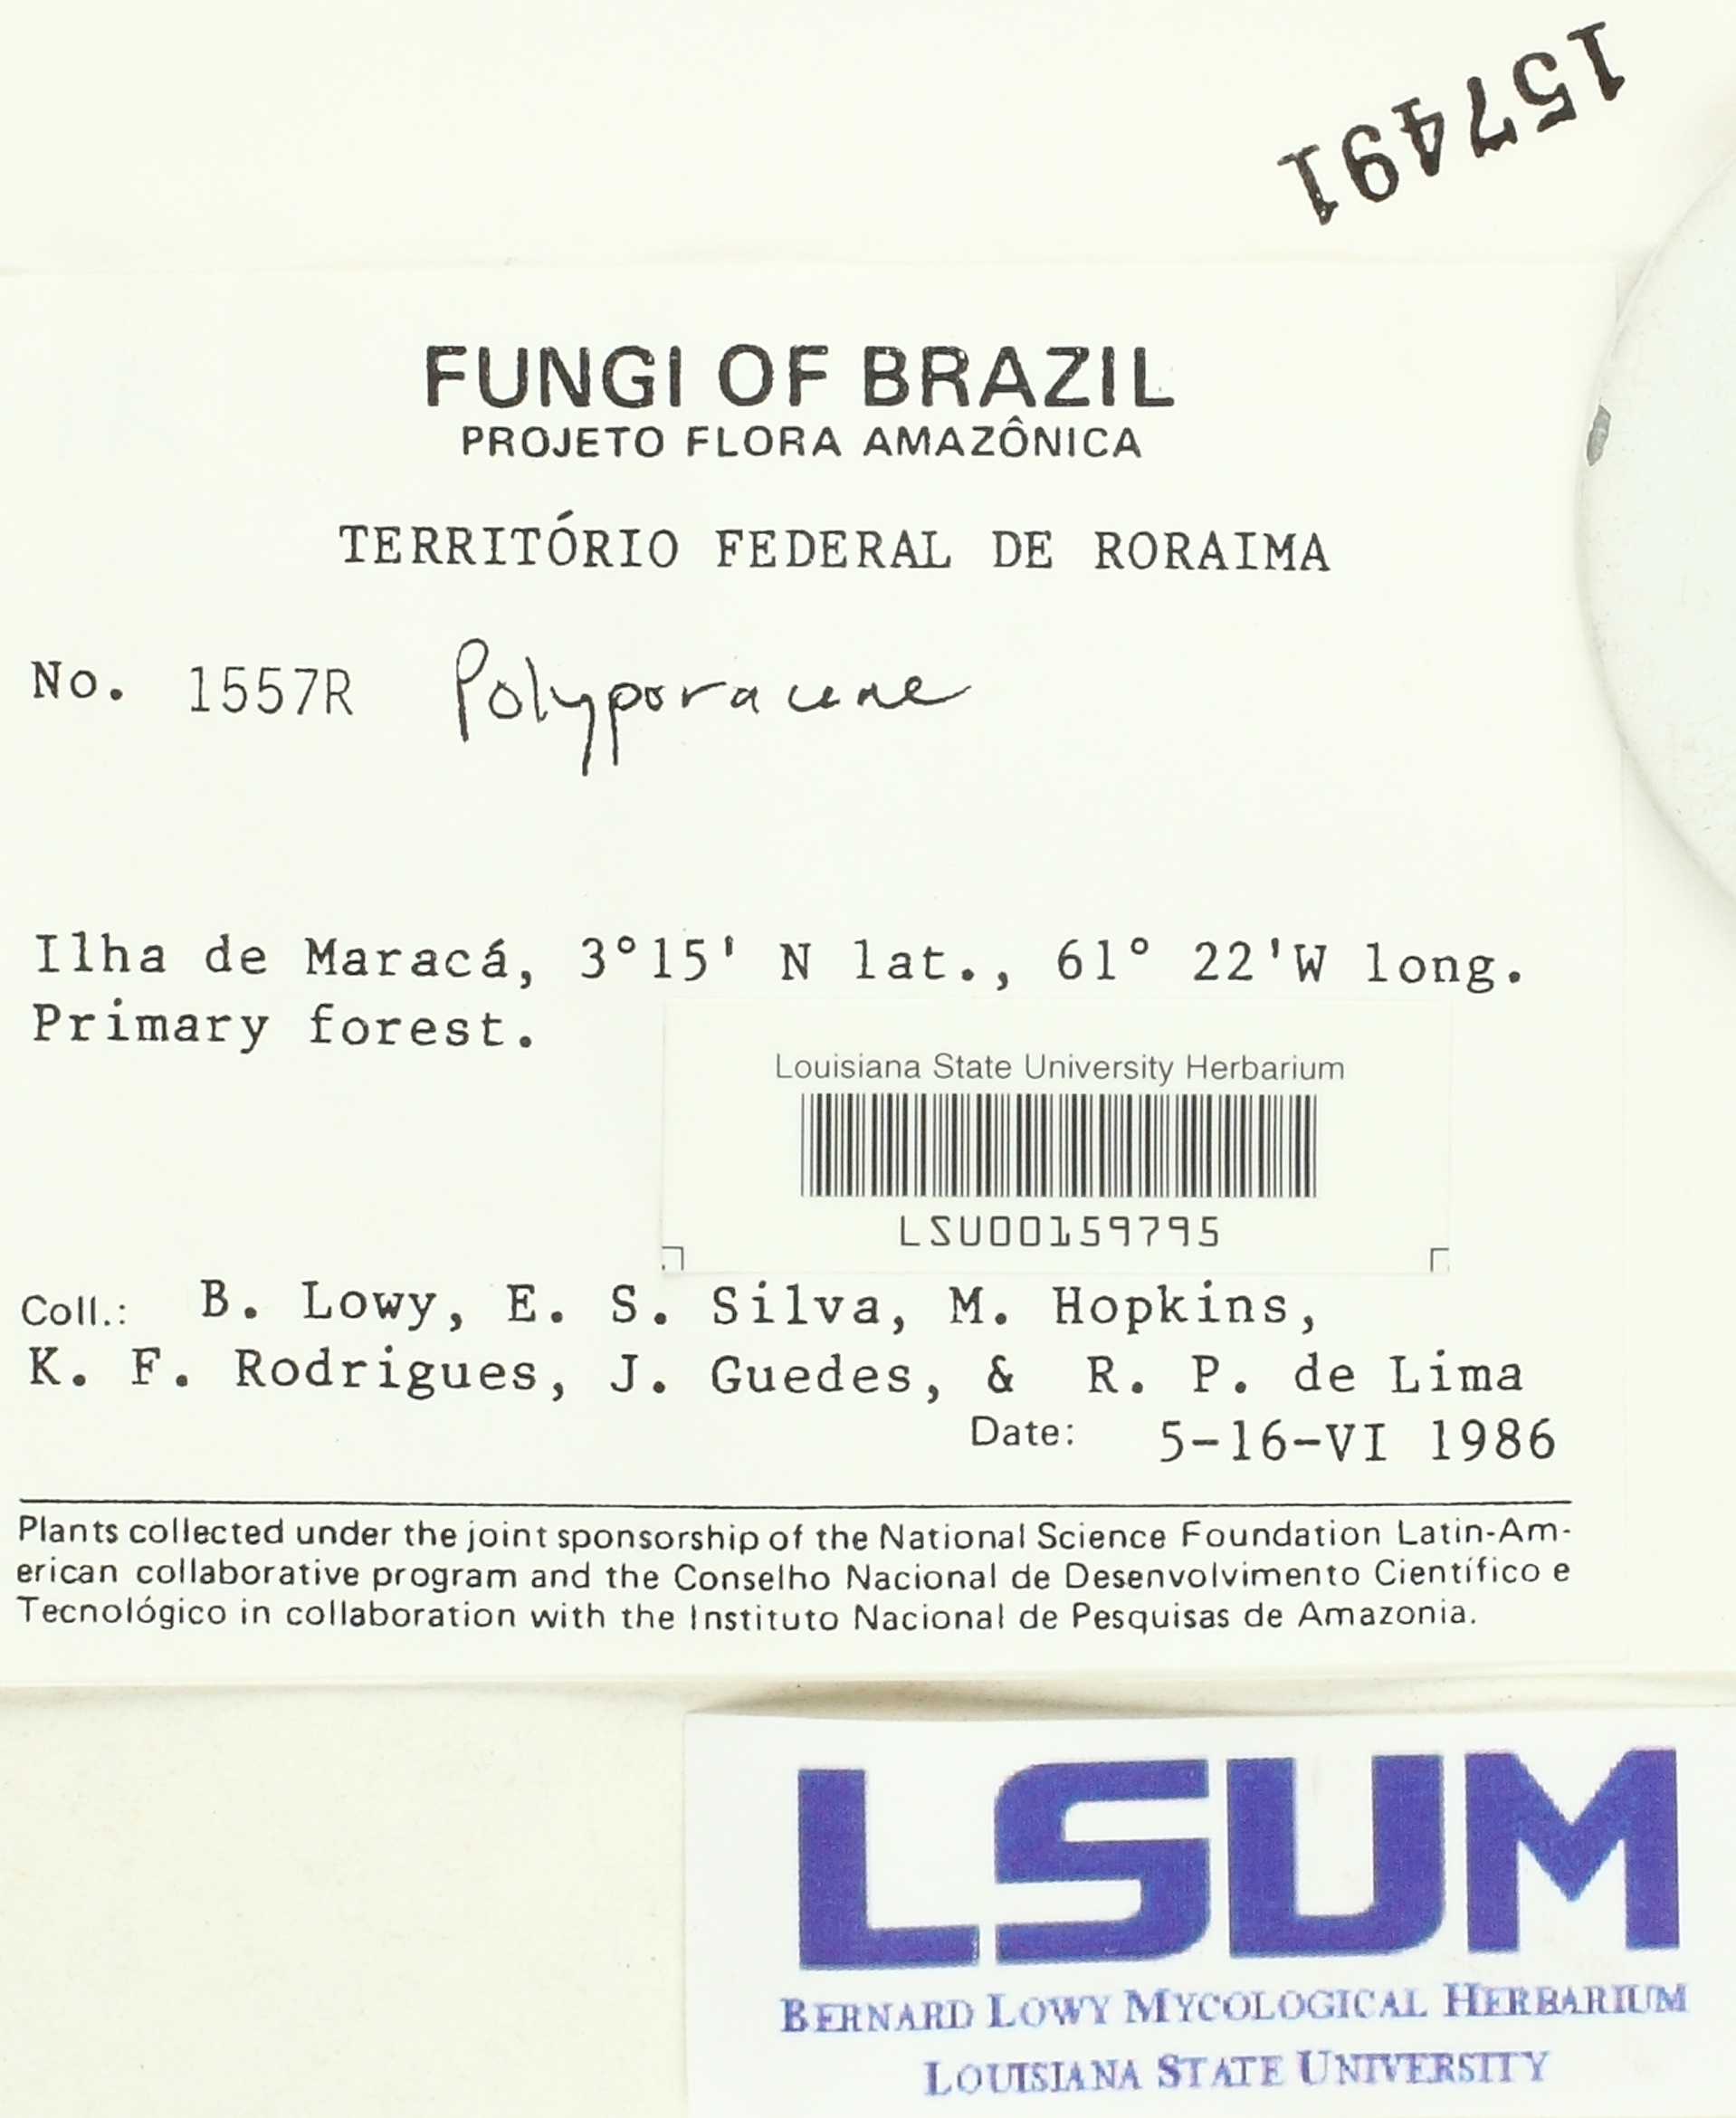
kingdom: Fungi
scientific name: Fungi
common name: Fungi
